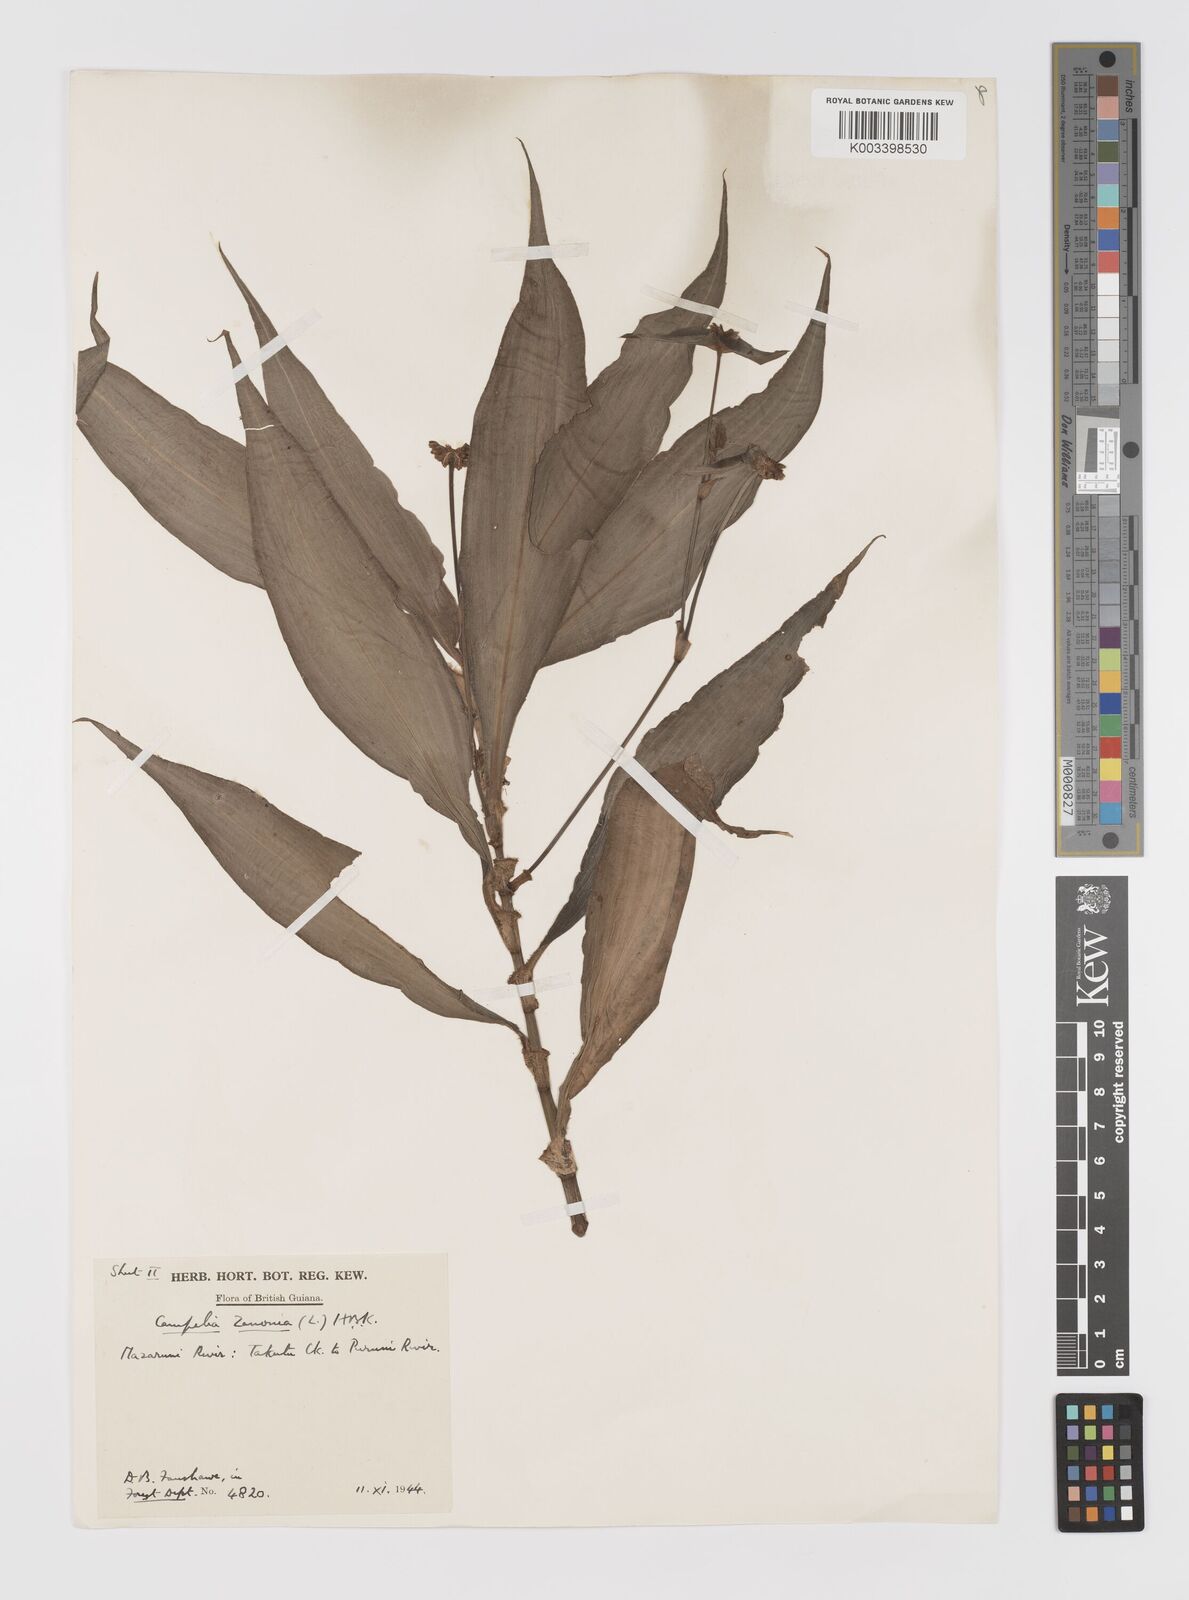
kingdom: Plantae
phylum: Tracheophyta
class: Liliopsida
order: Commelinales
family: Commelinaceae
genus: Tradescantia
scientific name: Tradescantia zanonia
